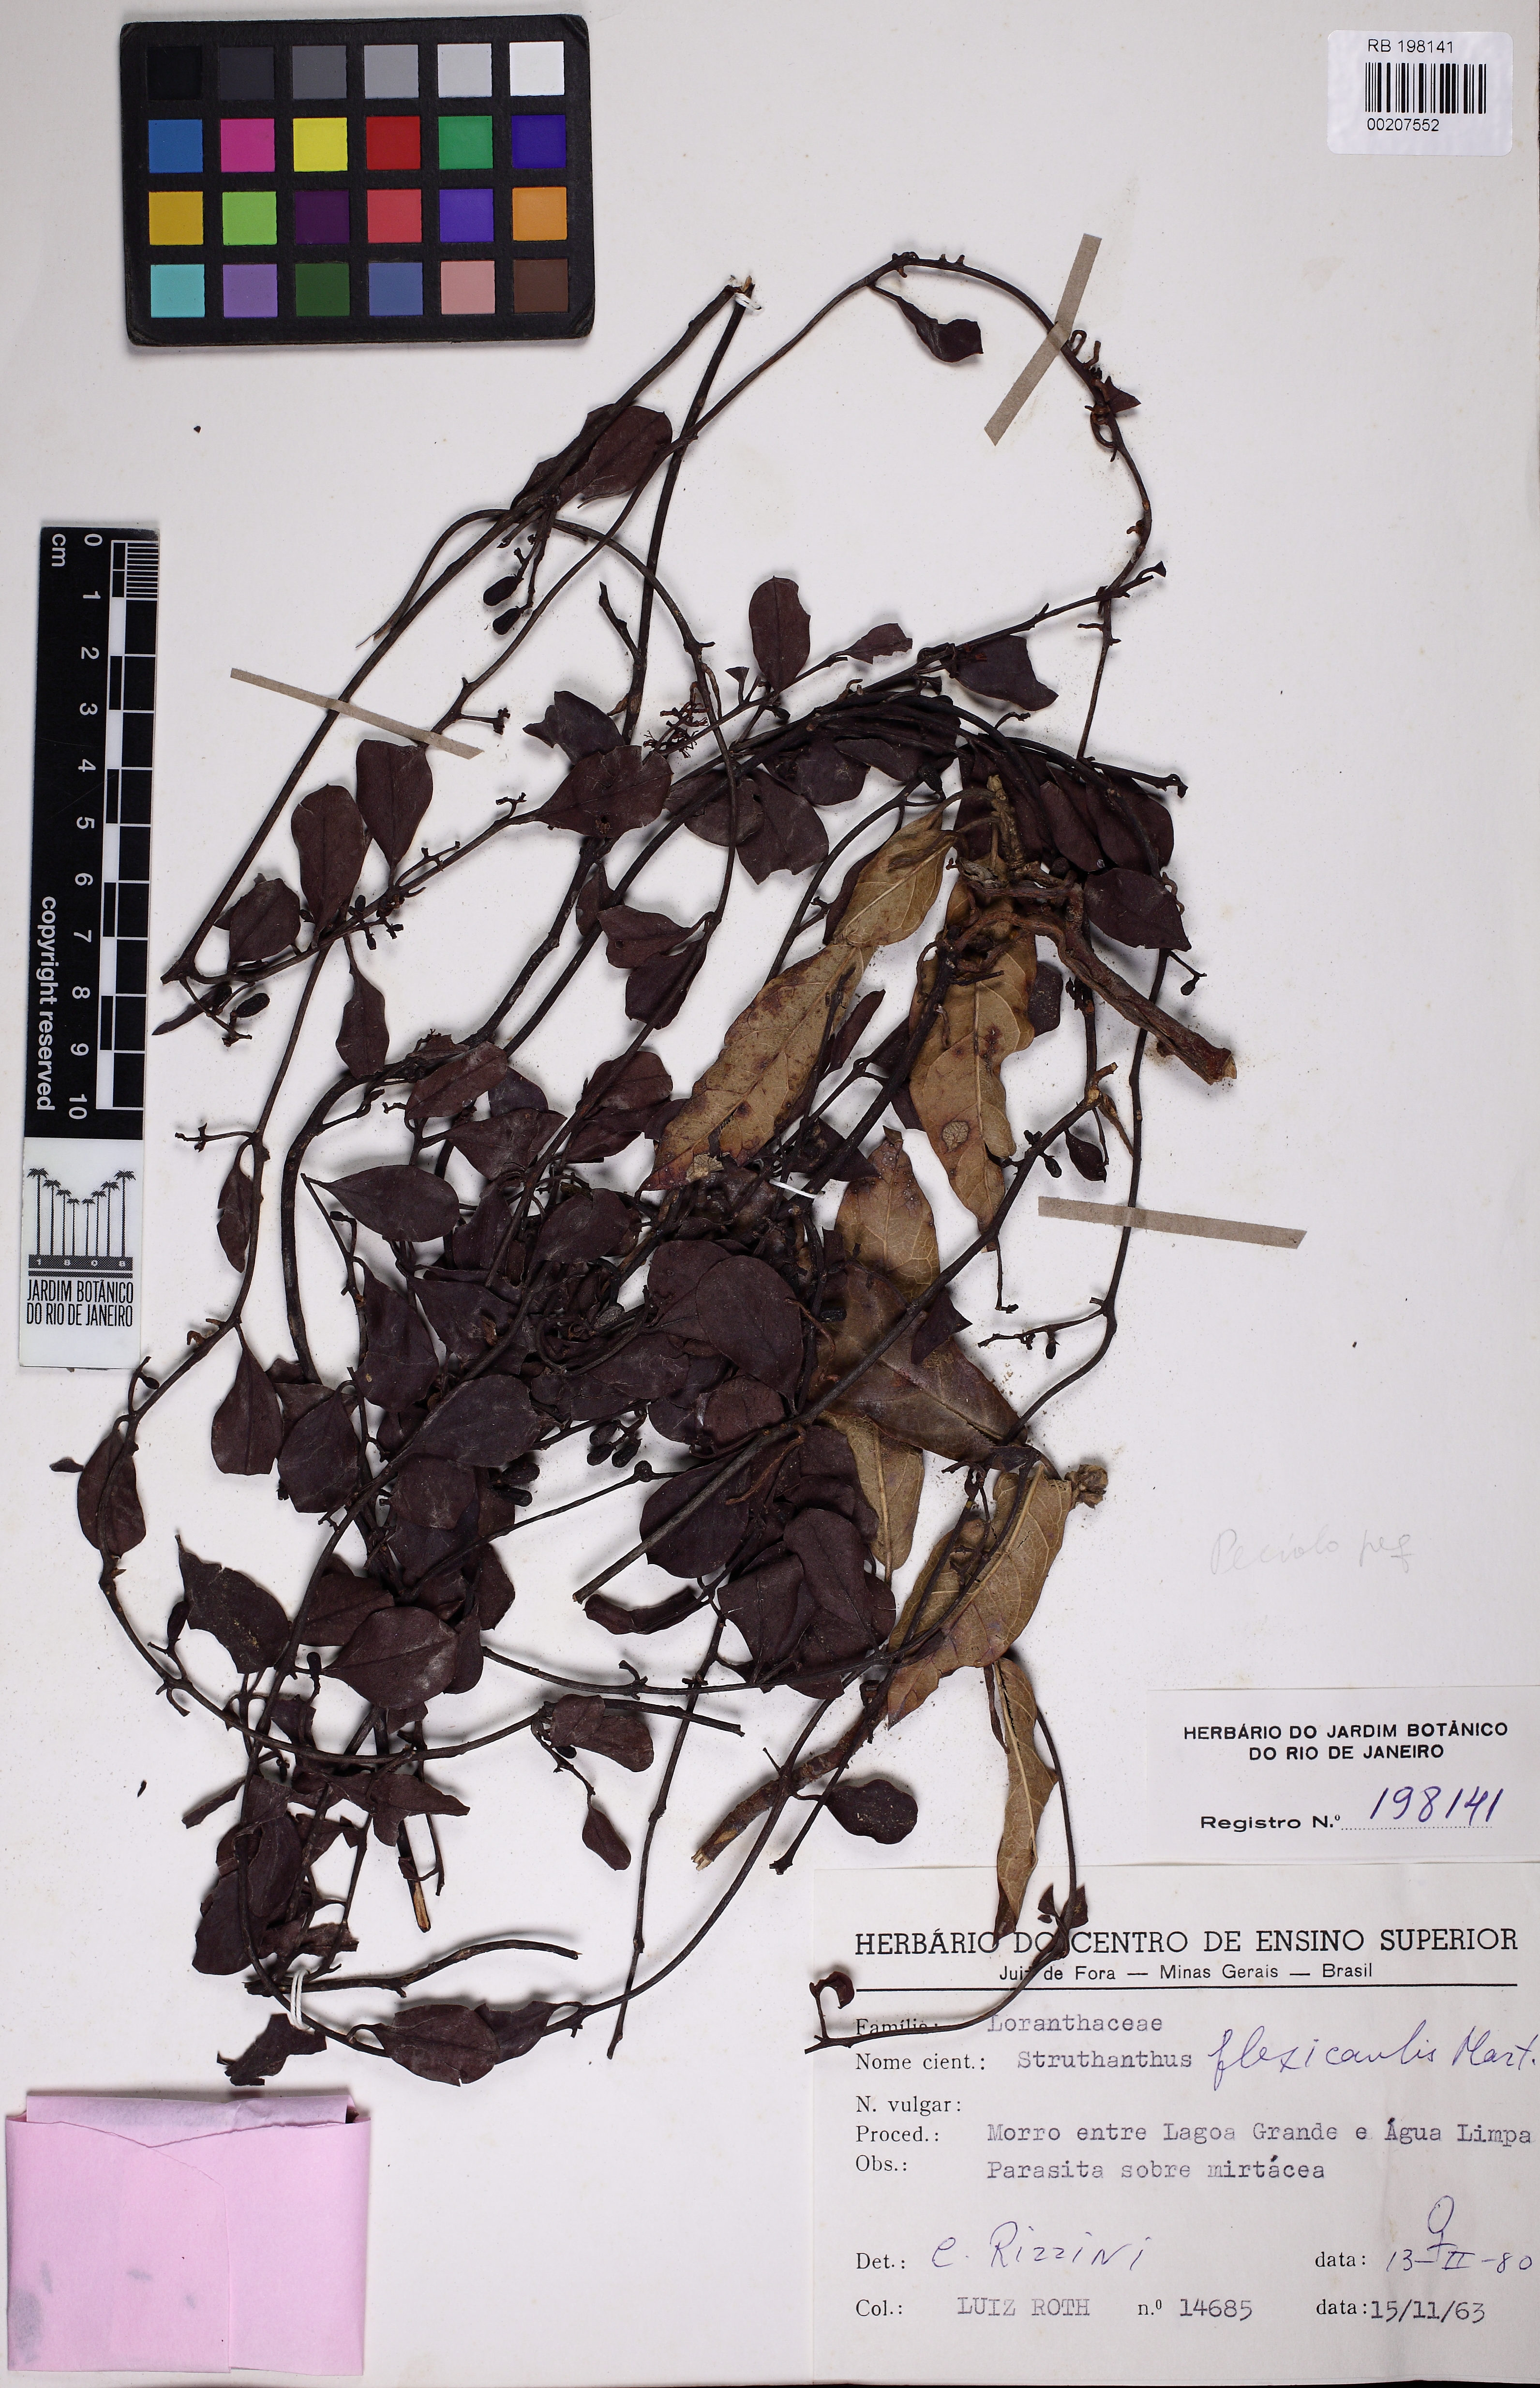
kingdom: Plantae
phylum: Tracheophyta
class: Magnoliopsida
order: Santalales
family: Loranthaceae
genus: Struthanthus
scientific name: Struthanthus flexicaulis
